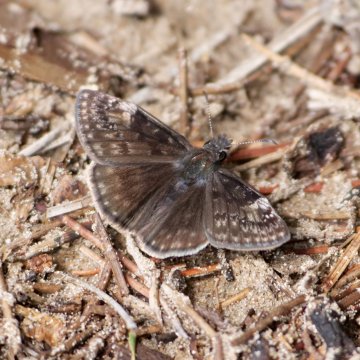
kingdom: Animalia
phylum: Arthropoda
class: Insecta
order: Lepidoptera
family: Hesperiidae
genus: Gesta
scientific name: Gesta
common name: Wild Indigo Duskywing
